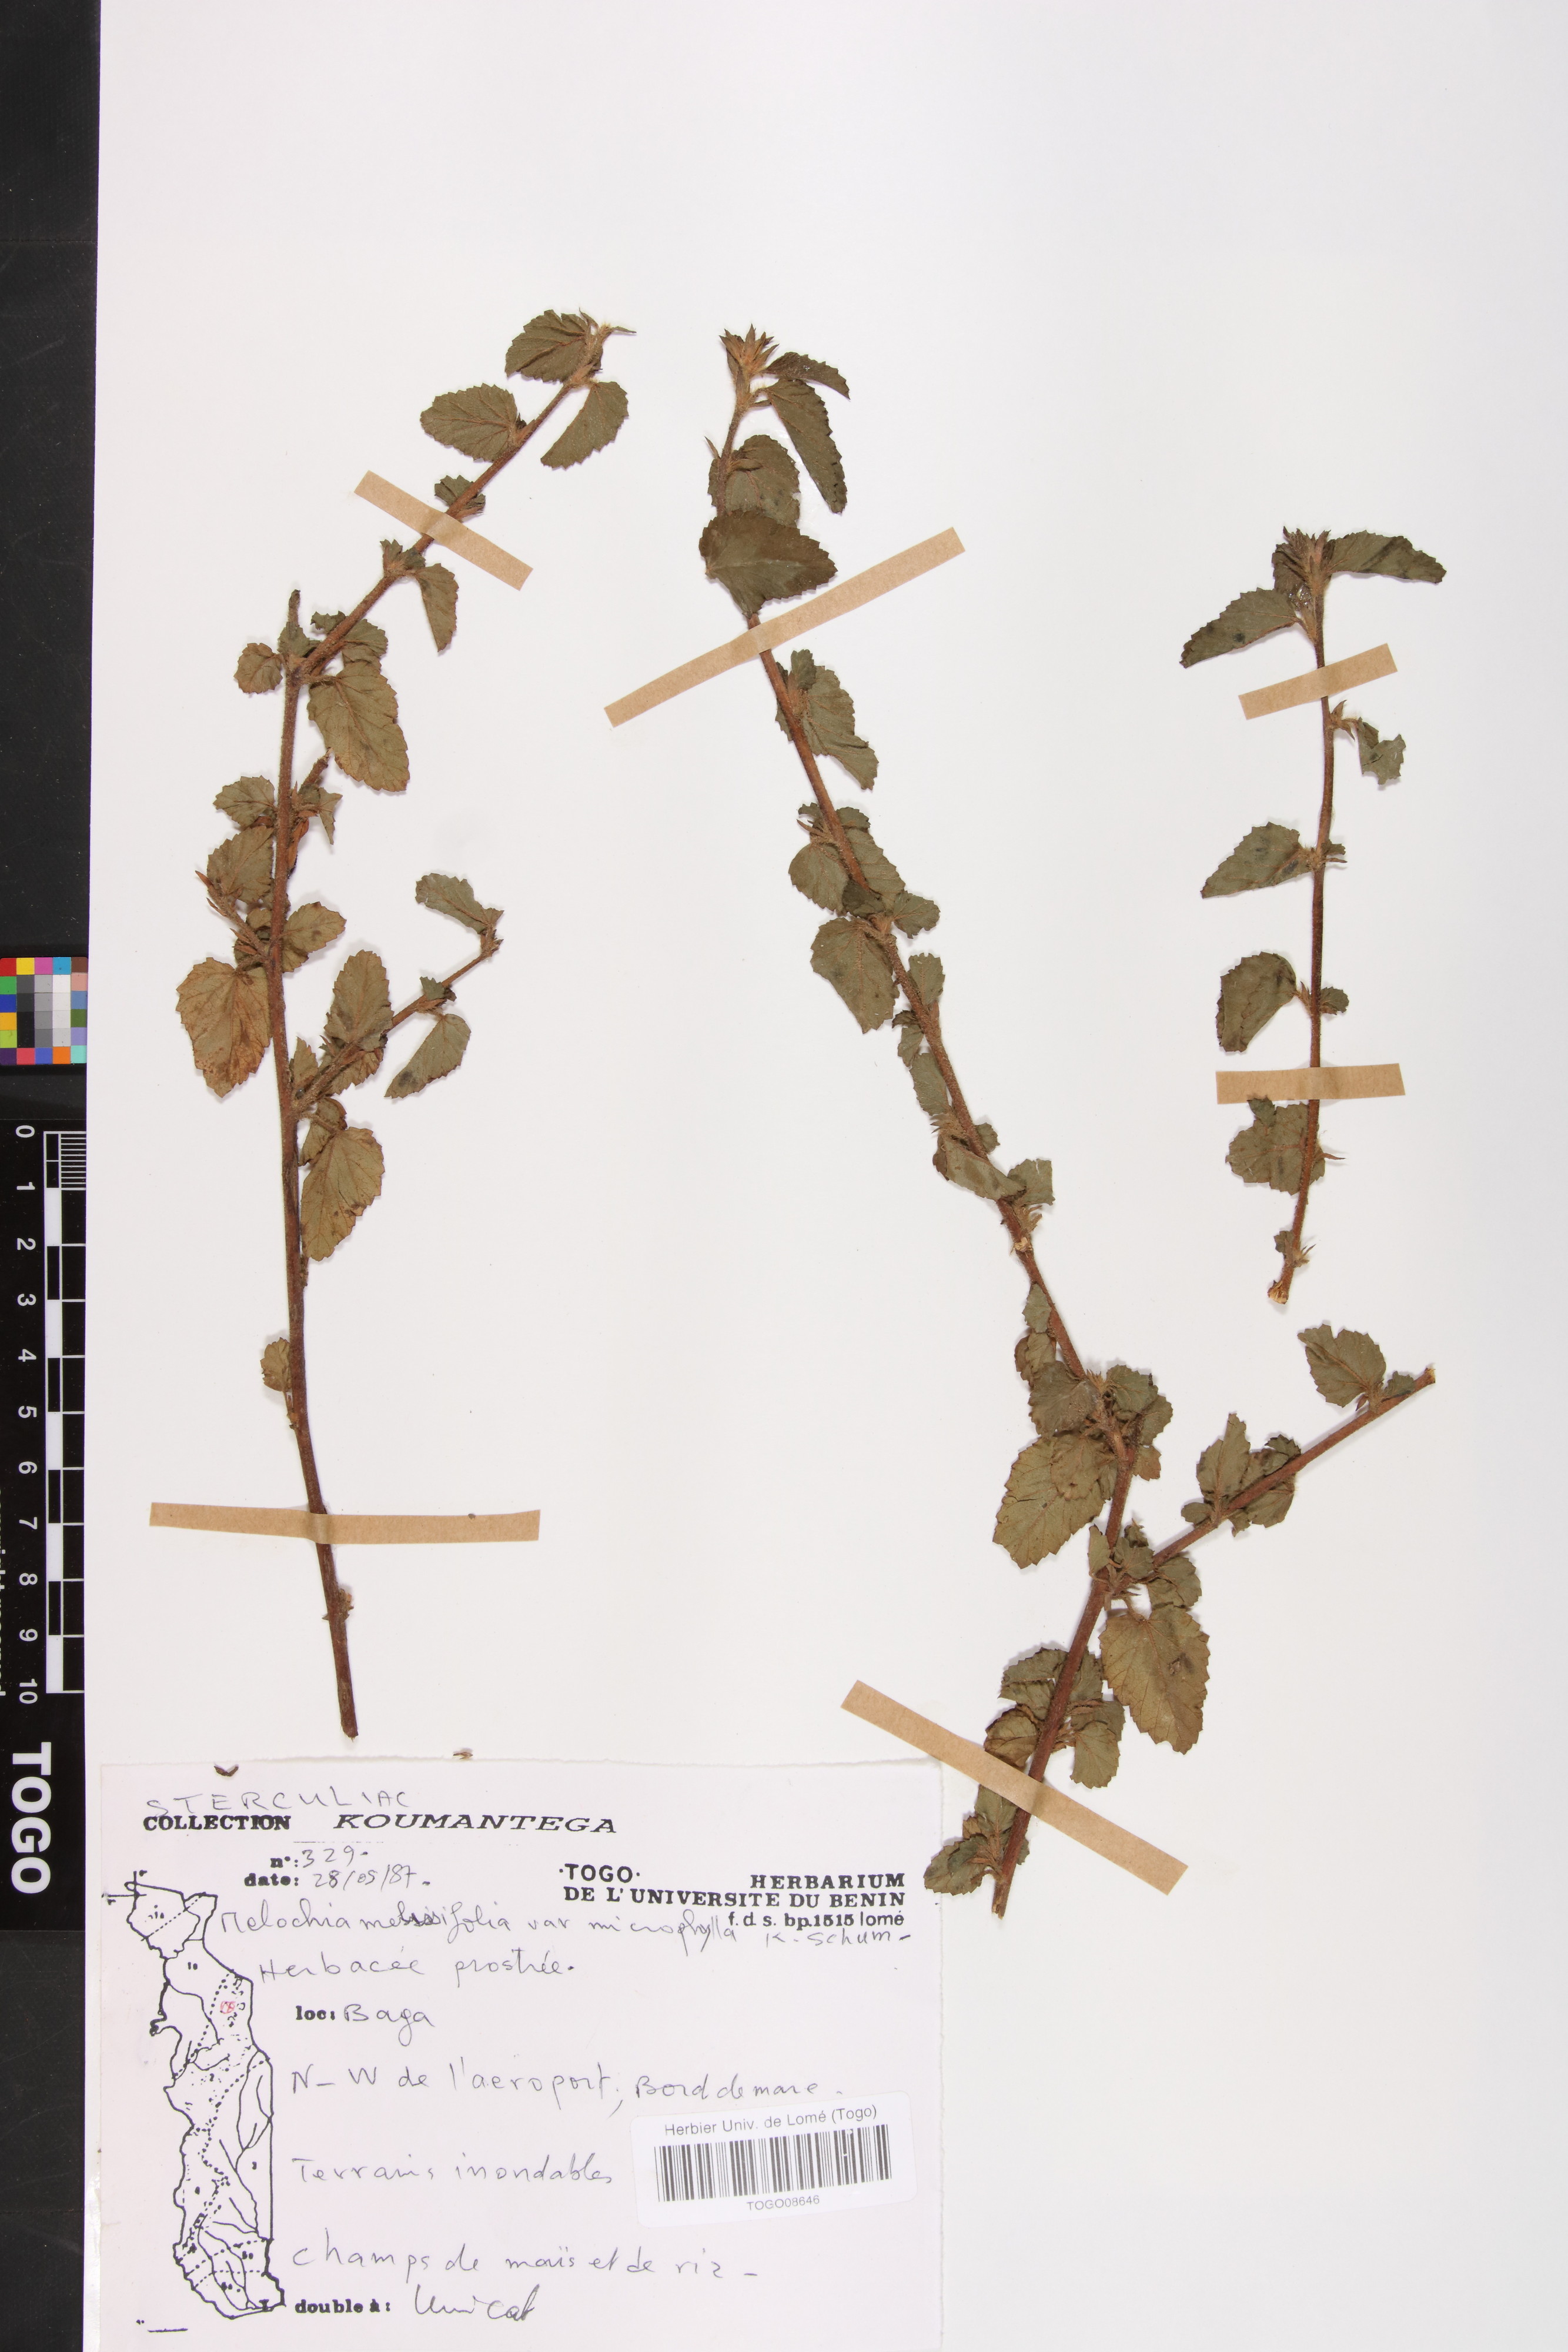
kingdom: Plantae
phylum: Tracheophyta
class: Magnoliopsida
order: Malvales
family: Malvaceae
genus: Melochia
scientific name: Melochia melissifolia
